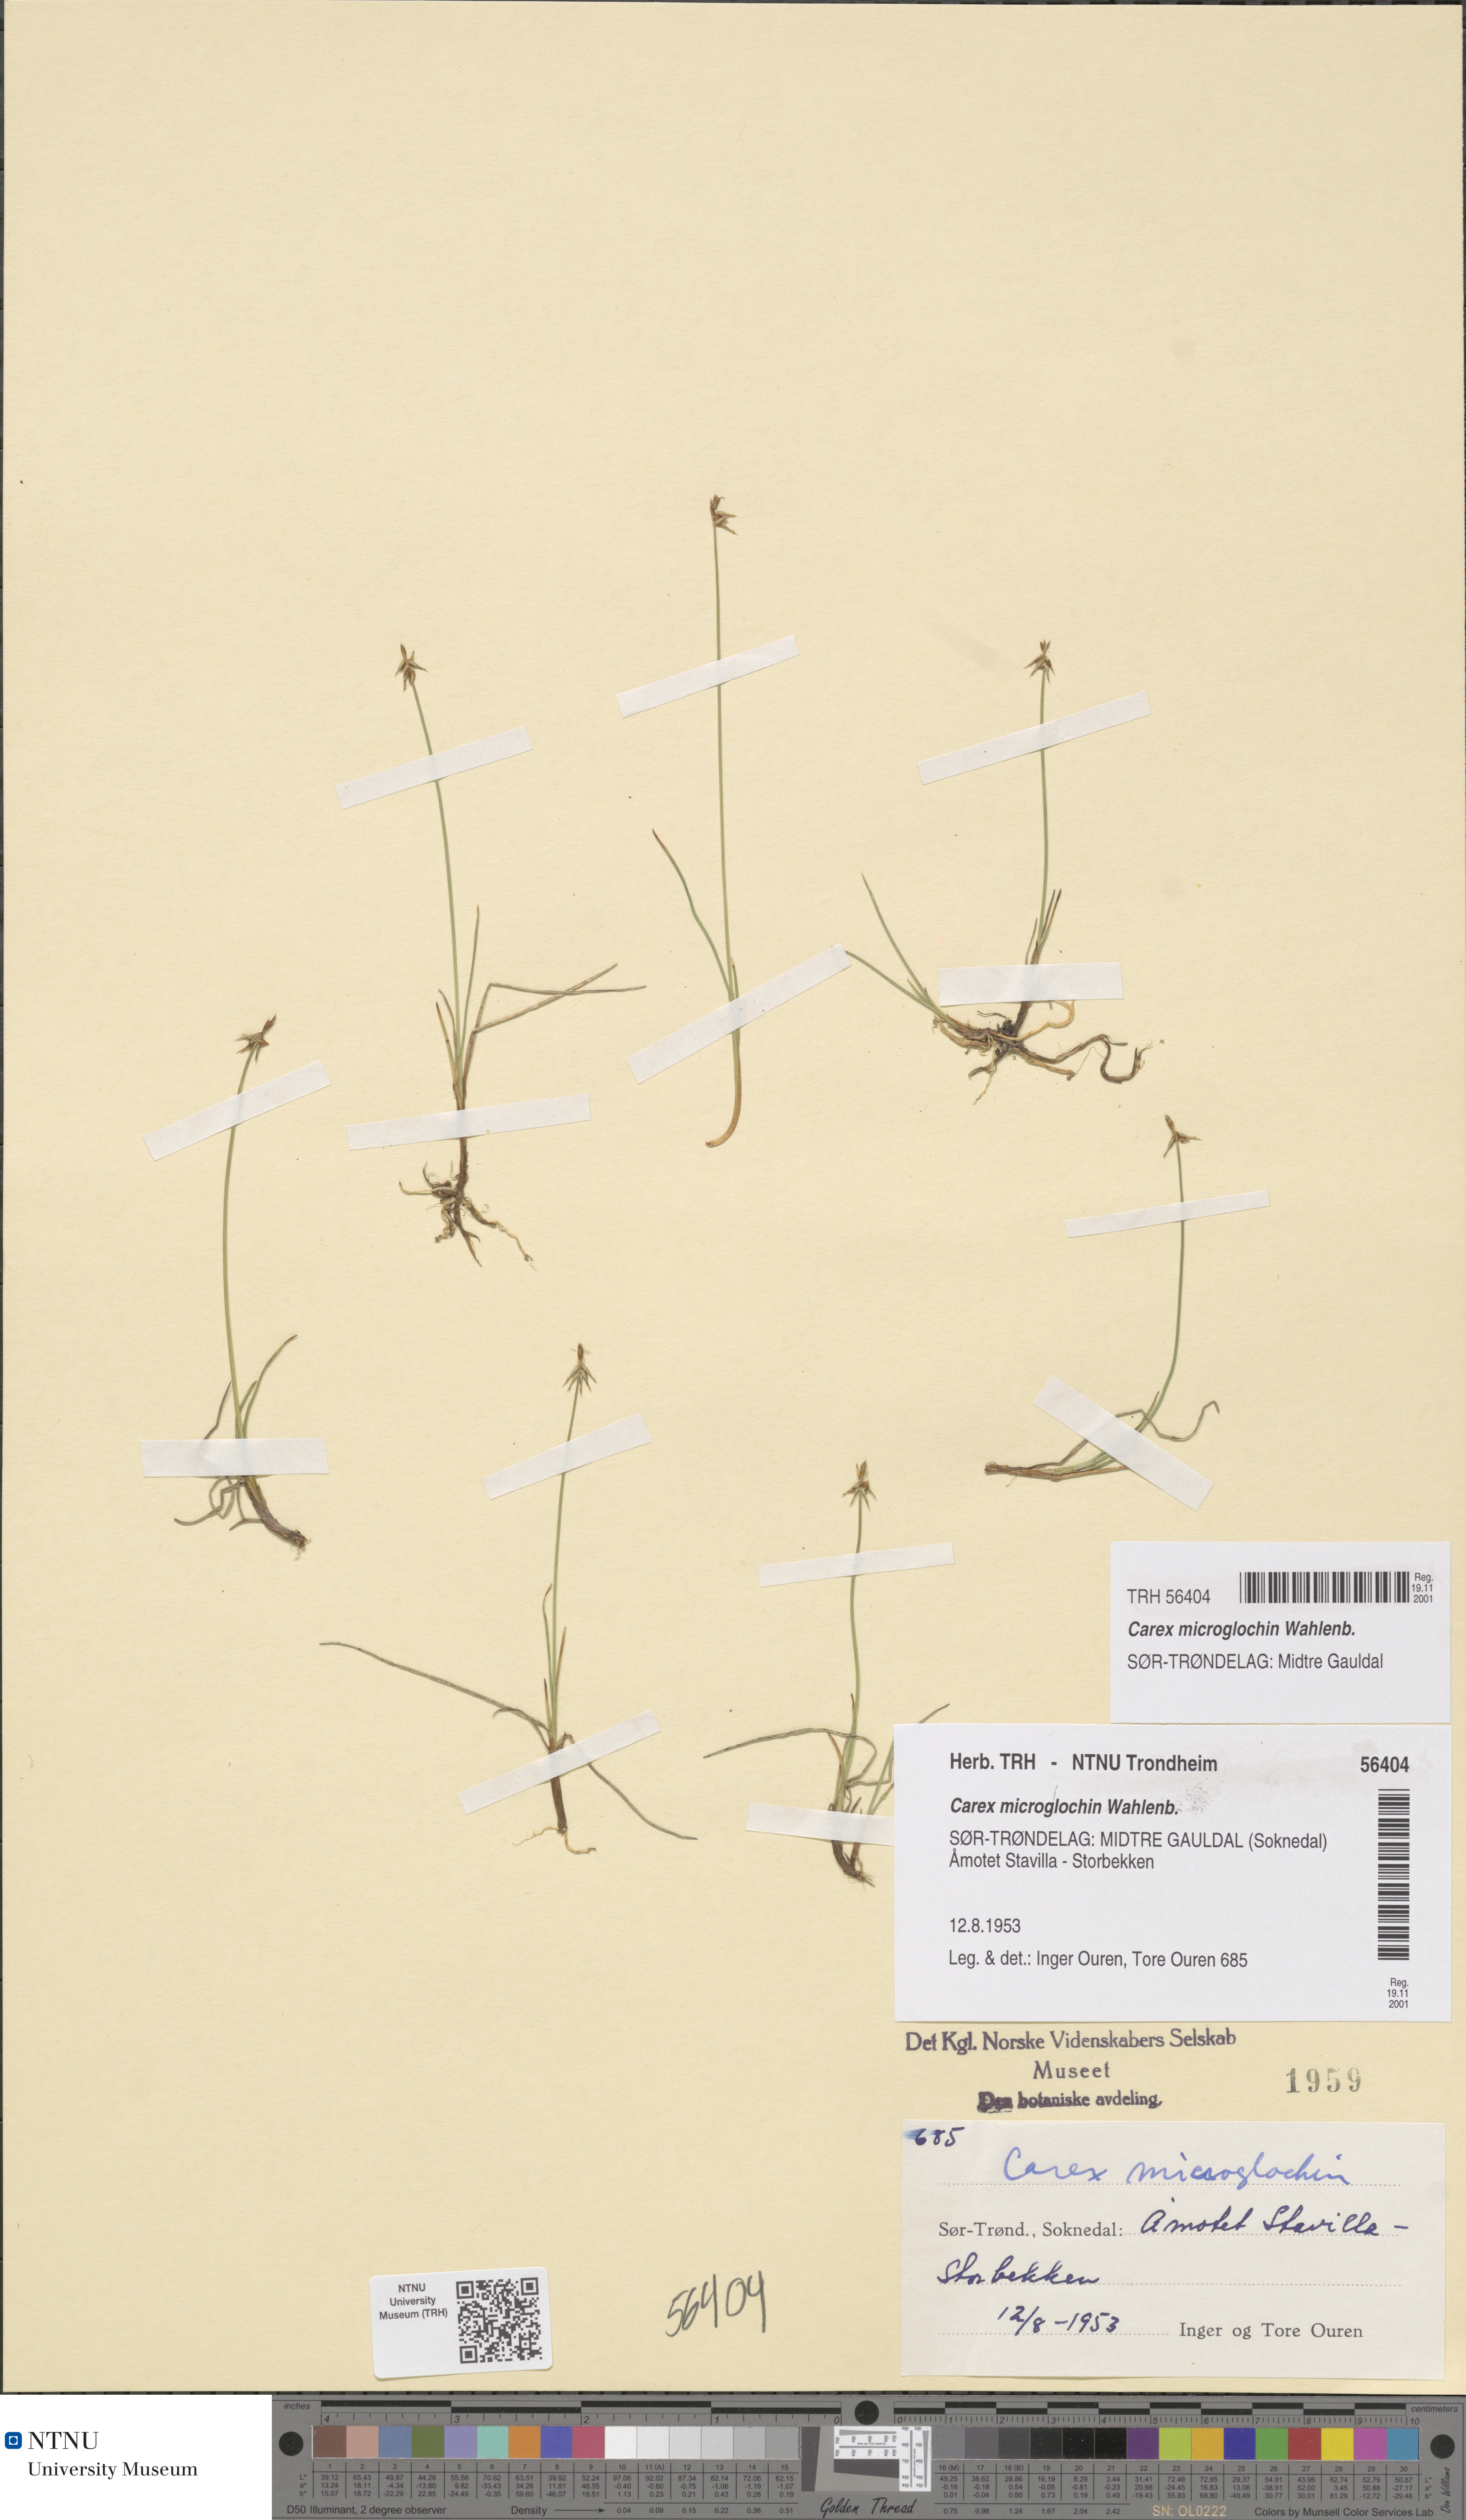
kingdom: Plantae
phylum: Tracheophyta
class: Liliopsida
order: Poales
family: Cyperaceae
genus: Carex
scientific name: Carex microglochin
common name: Bristle sedge
